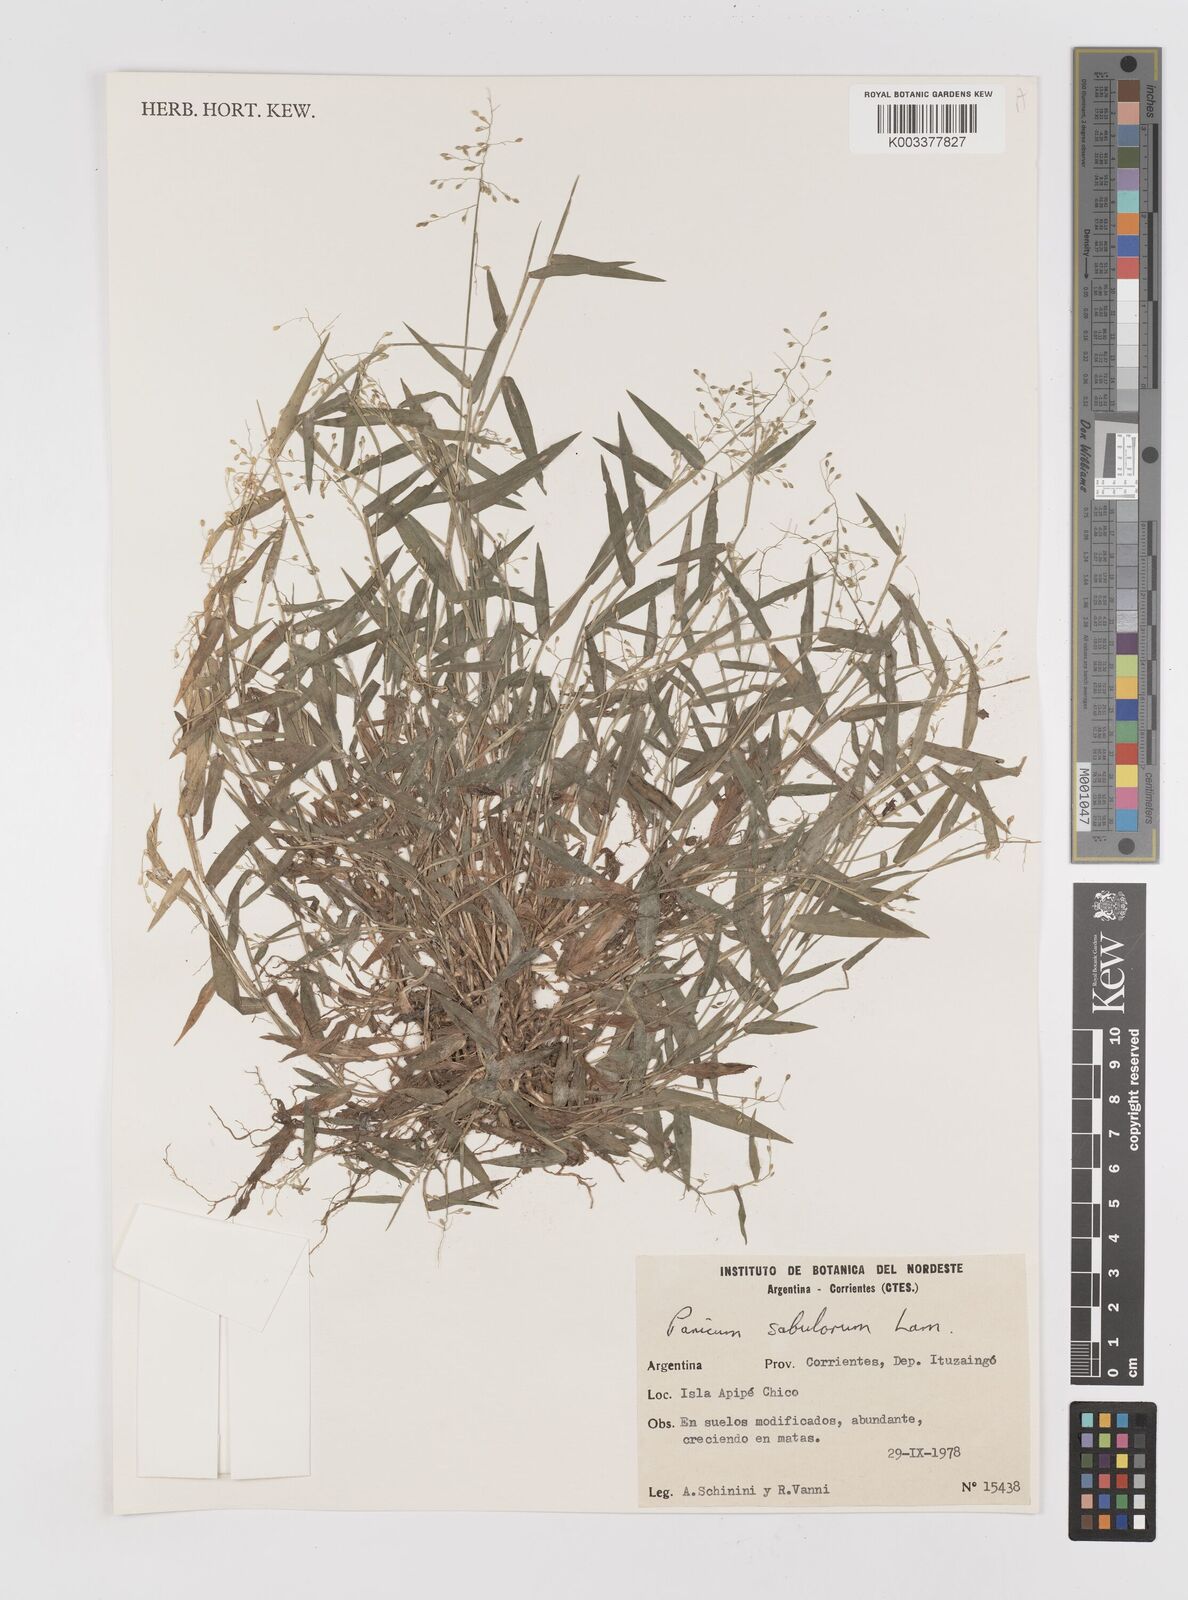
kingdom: Plantae
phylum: Tracheophyta
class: Liliopsida
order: Poales
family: Poaceae
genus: Dichanthelium
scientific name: Dichanthelium sabulorum
